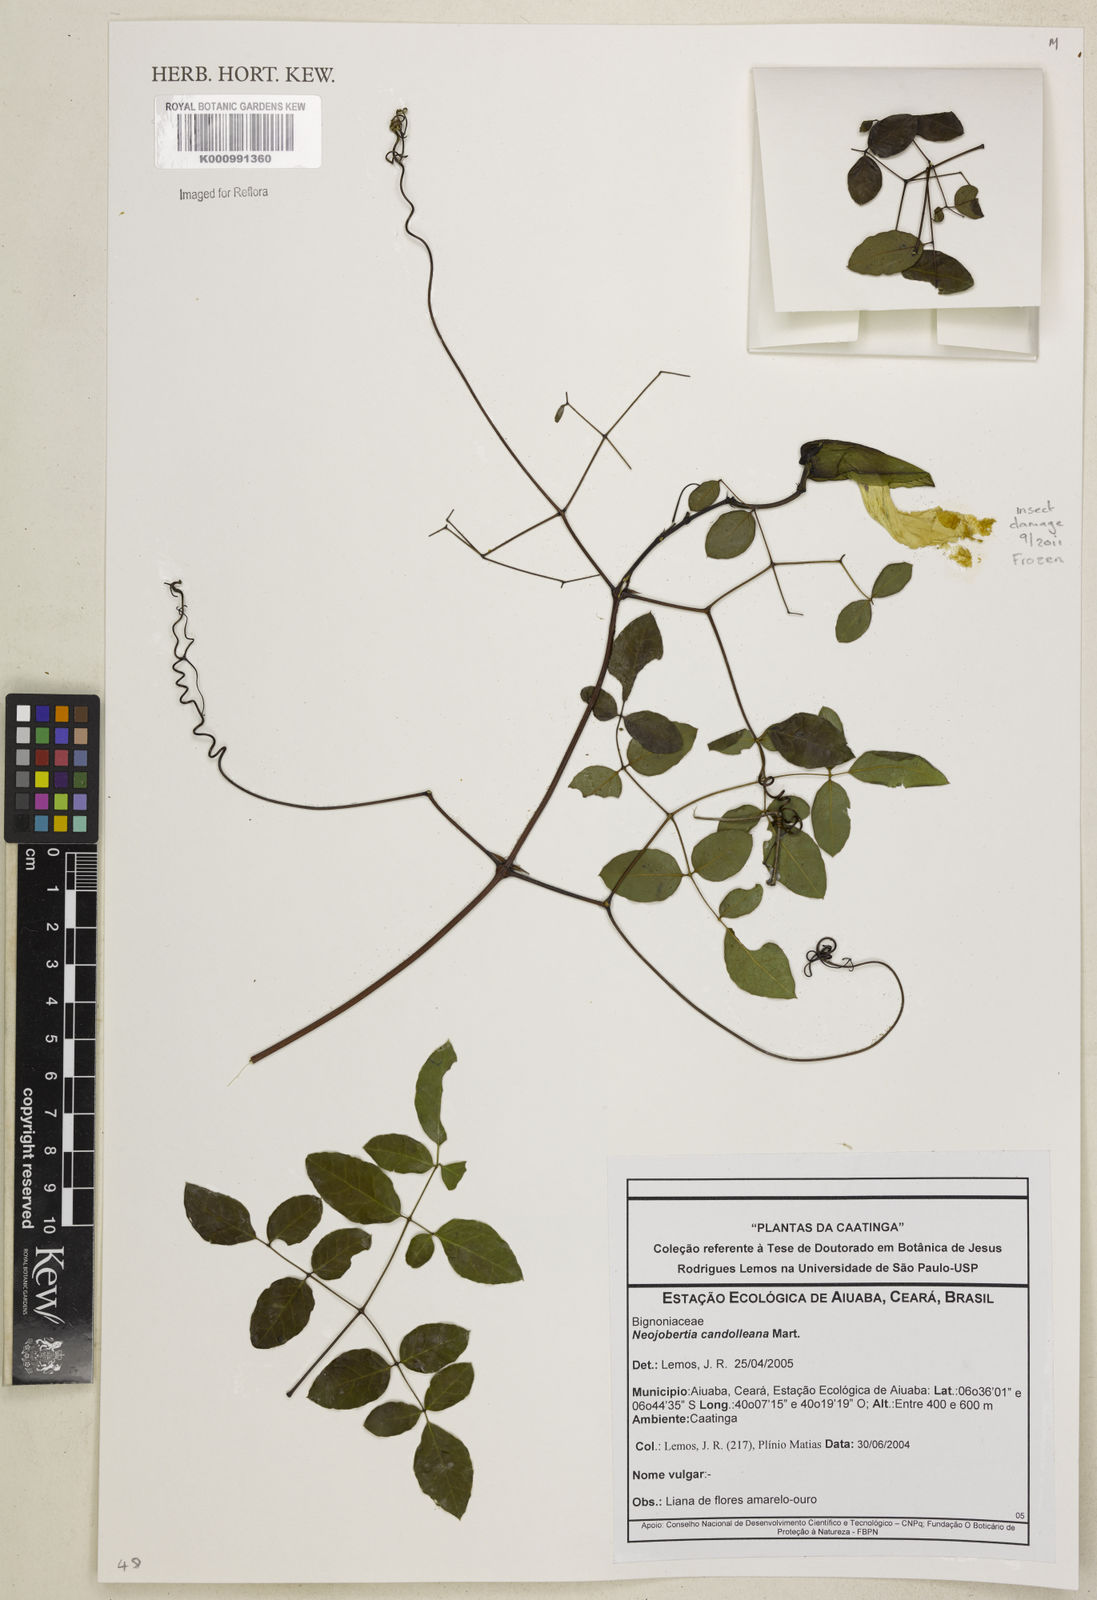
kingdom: Plantae
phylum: Tracheophyta
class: Magnoliopsida
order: Lamiales
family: Bignoniaceae
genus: Adenocalymma
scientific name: Adenocalymma candolleanum
